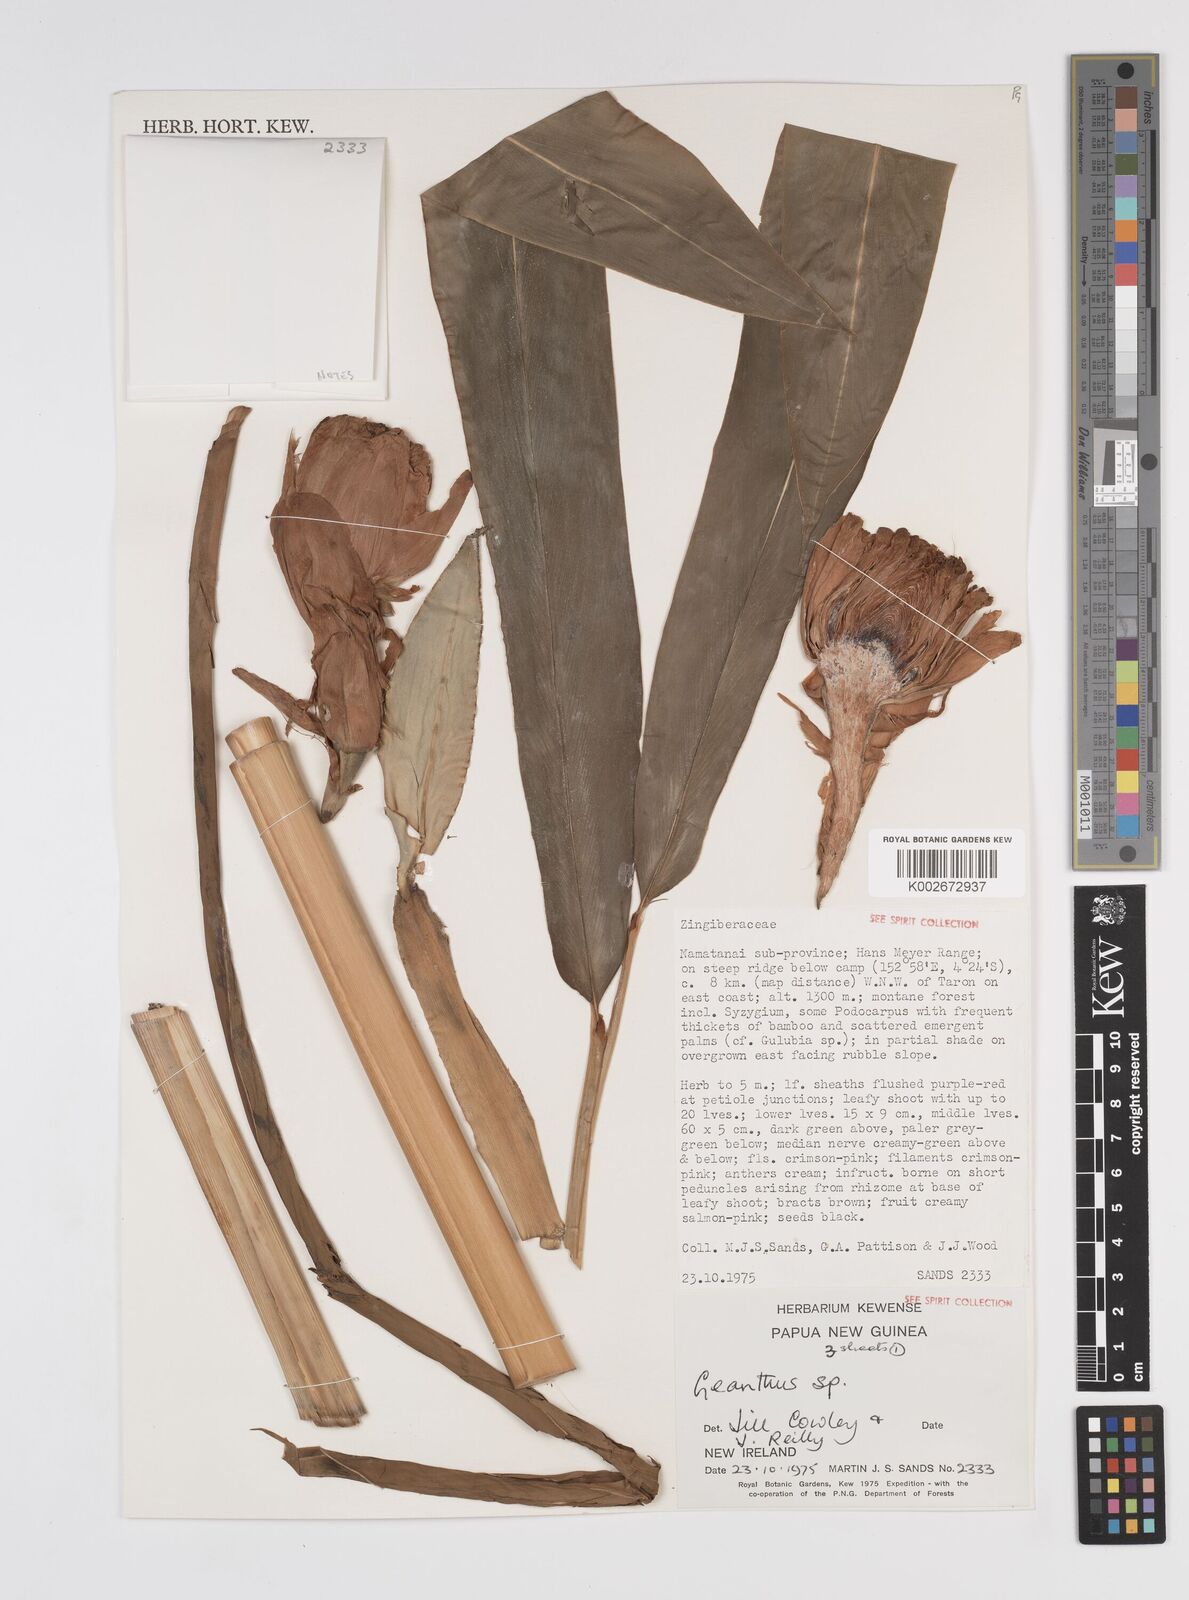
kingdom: Plantae
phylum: Tracheophyta
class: Liliopsida
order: Zingiberales
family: Zingiberaceae
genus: Etlingera
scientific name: Etlingera
